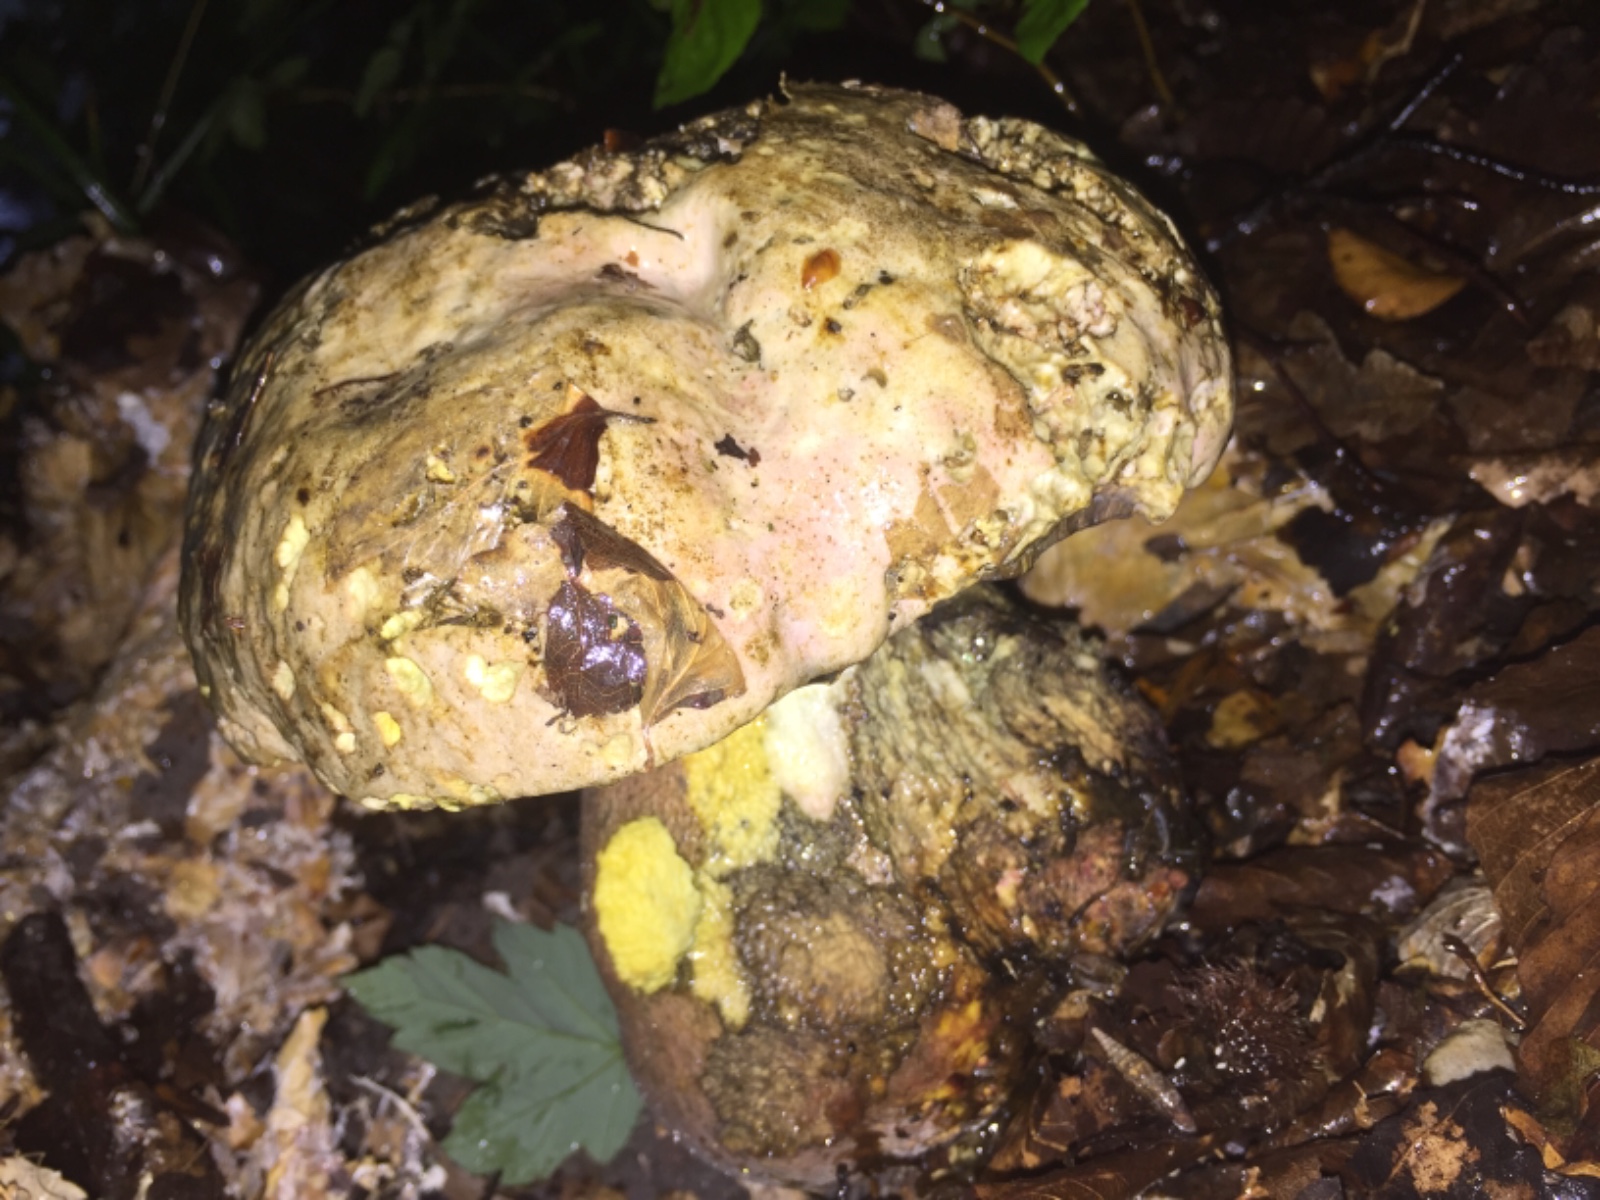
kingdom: Fungi
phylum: Basidiomycota
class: Agaricomycetes
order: Boletales
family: Boletaceae
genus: Rubroboletus
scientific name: Rubroboletus satanas
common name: Satans rørhat
